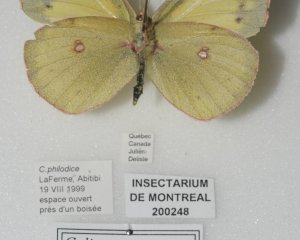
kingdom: Animalia
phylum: Arthropoda
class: Insecta
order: Lepidoptera
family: Pieridae
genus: Colias
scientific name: Colias philodice
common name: Clouded Sulphur
